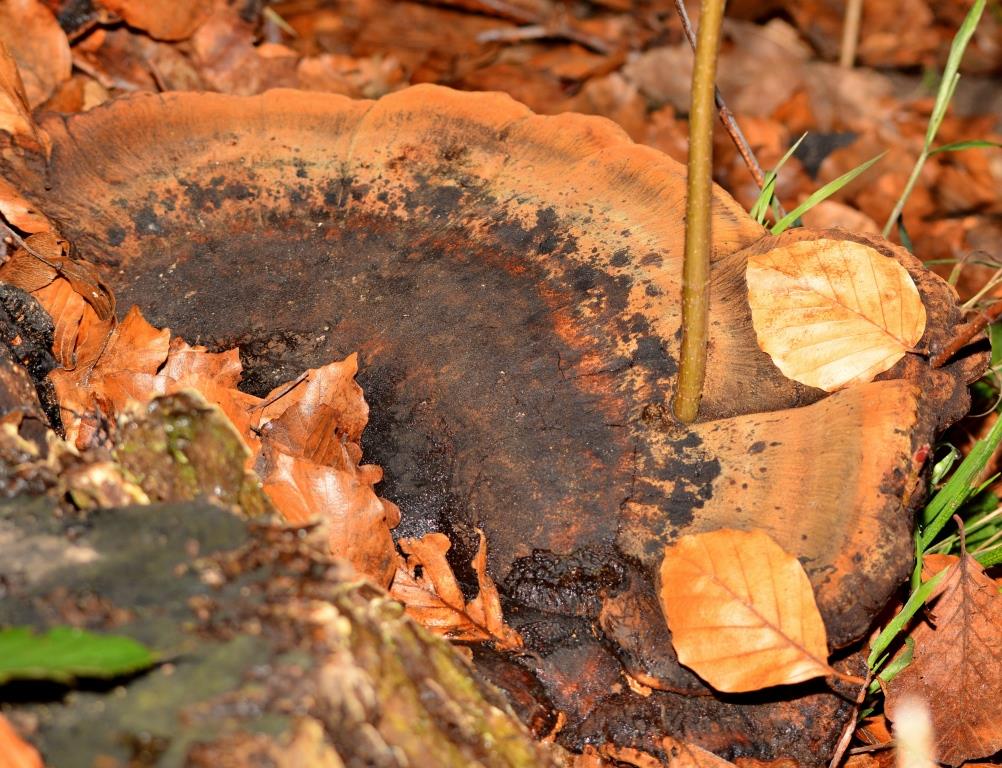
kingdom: Fungi
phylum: Basidiomycota
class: Agaricomycetes
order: Hymenochaetales
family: Hymenochaetaceae
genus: Pseudoinonotus
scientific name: Pseudoinonotus dryadeus
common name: ege-spejlporesvamp
